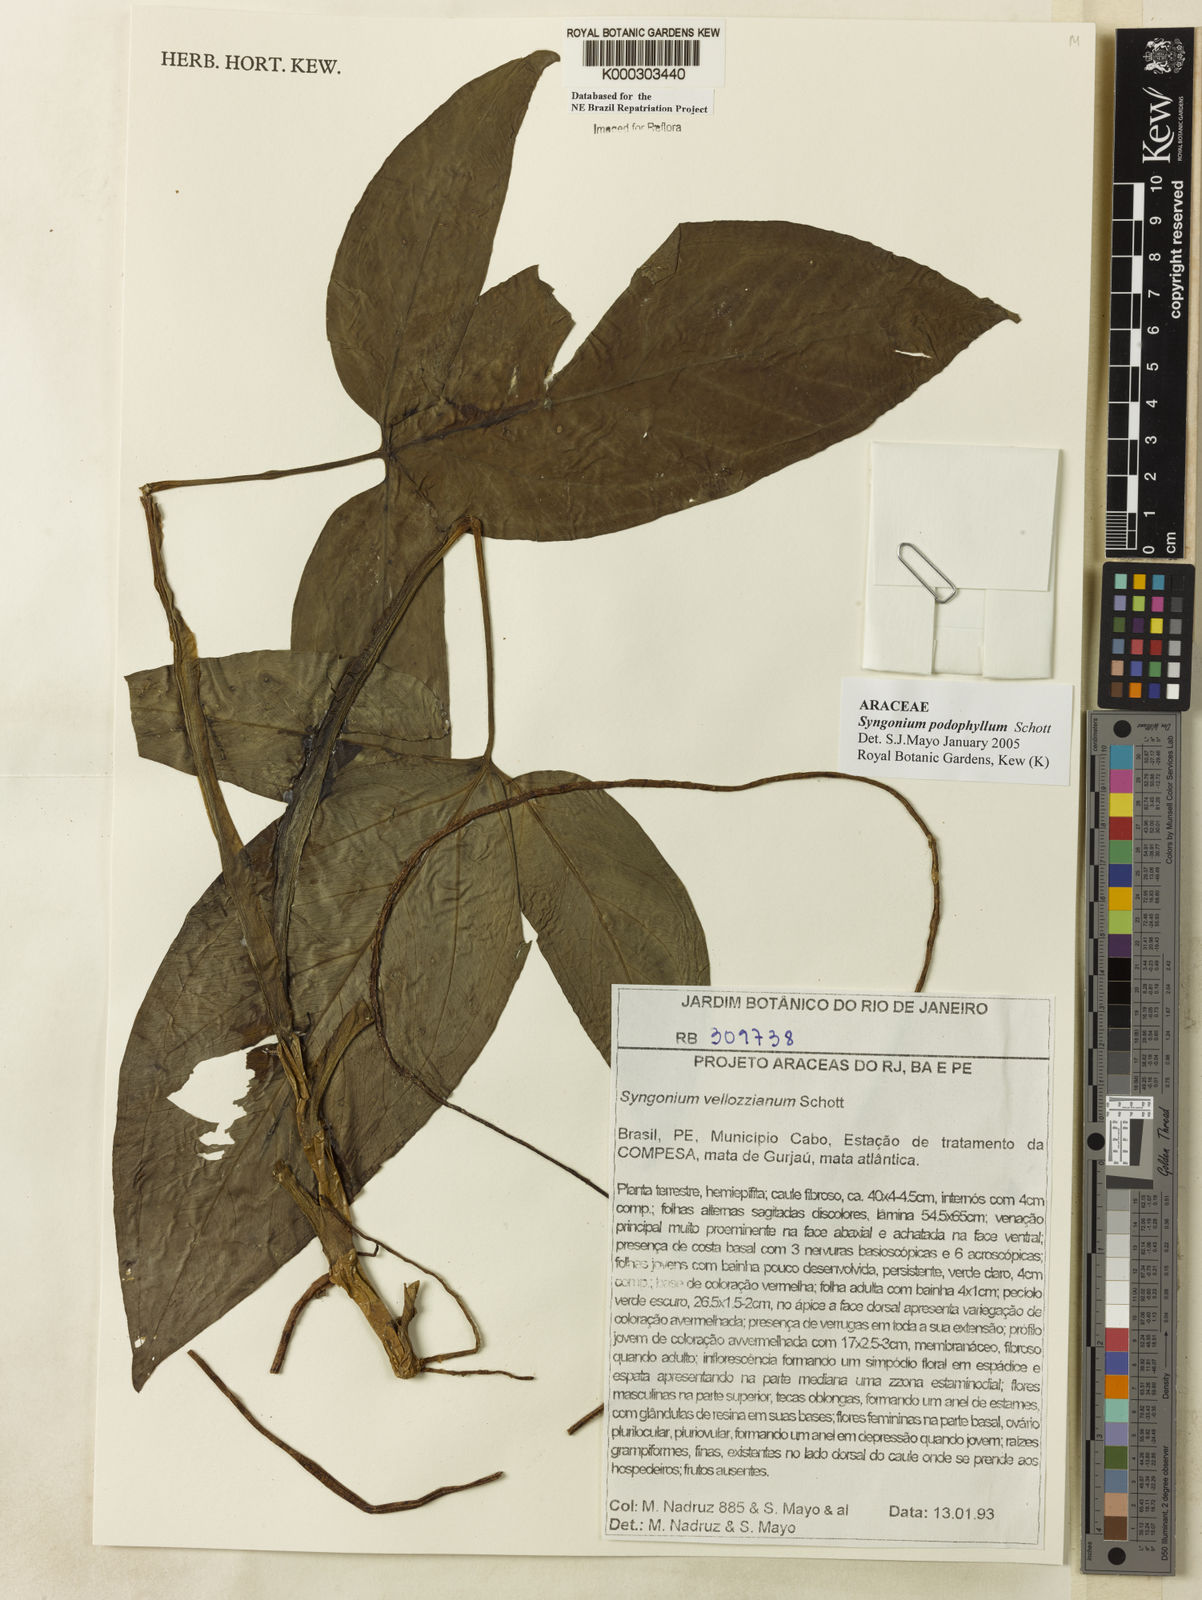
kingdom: Plantae
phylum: Tracheophyta
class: Liliopsida
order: Alismatales
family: Araceae
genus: Syngonium
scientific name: Syngonium podophyllum
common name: American evergreen
